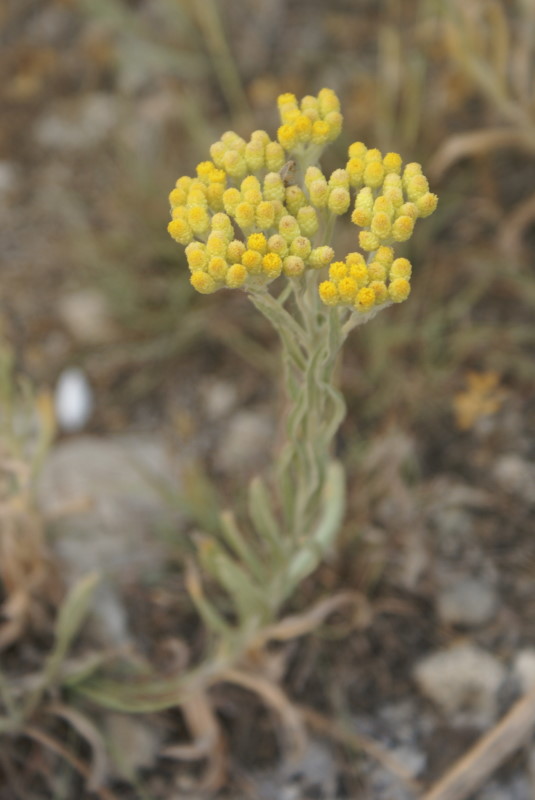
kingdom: Plantae
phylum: Tracheophyta
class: Magnoliopsida
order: Asterales
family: Asteraceae
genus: Helichrysum
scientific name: Helichrysum arenarium
